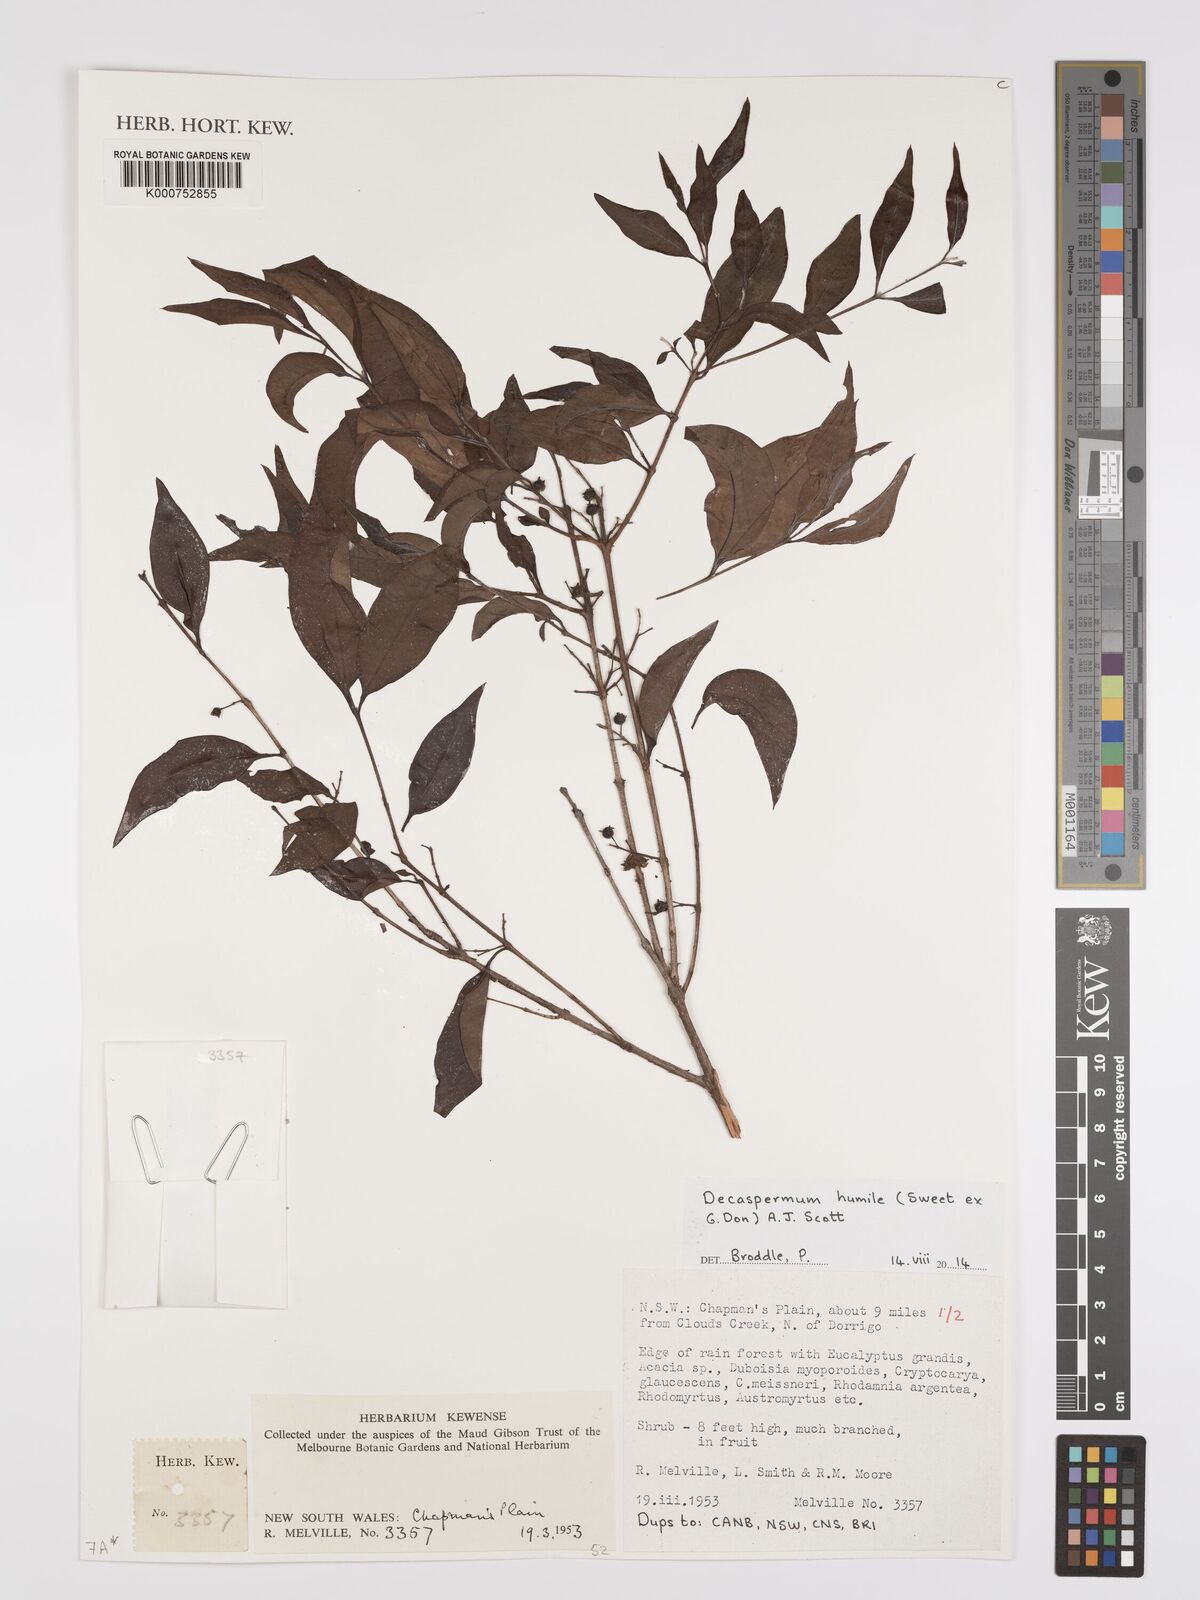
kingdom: Plantae
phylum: Tracheophyta
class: Magnoliopsida
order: Myrtales
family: Myrtaceae
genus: Decaspermum
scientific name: Decaspermum humile
